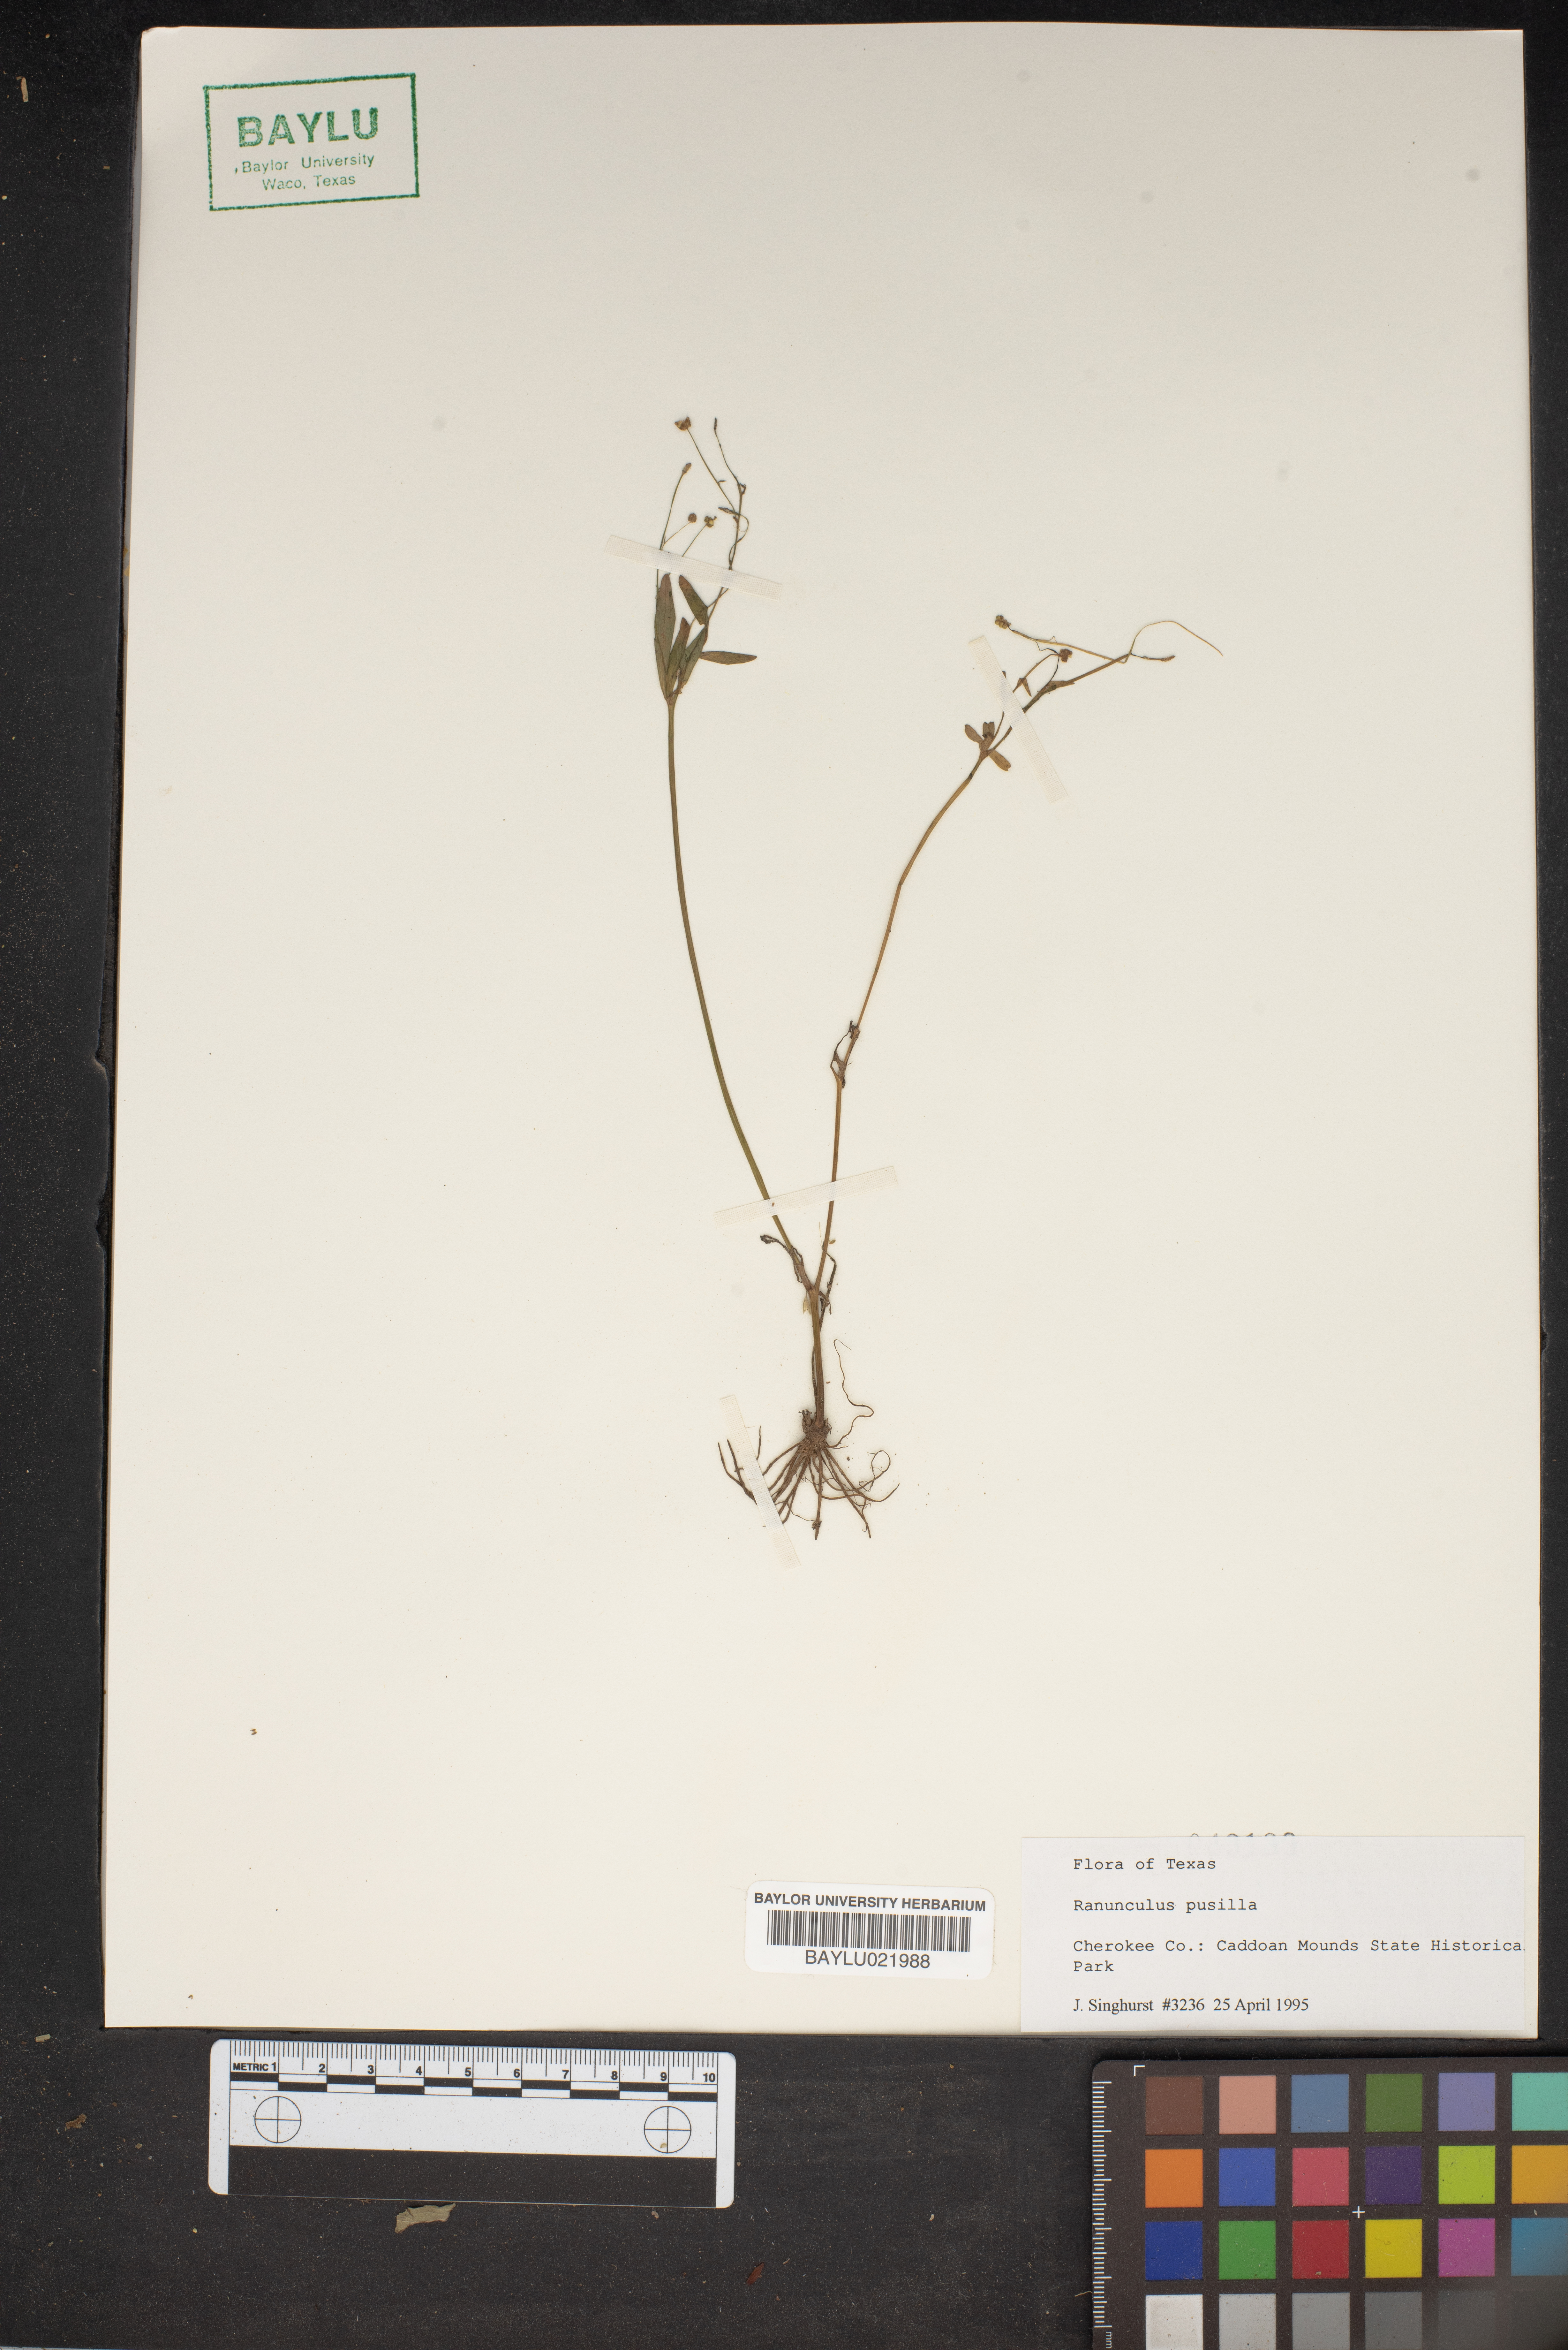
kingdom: Plantae
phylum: Tracheophyta
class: Magnoliopsida
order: Ranunculales
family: Ranunculaceae
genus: Ranunculus
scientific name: Ranunculus pusillus
